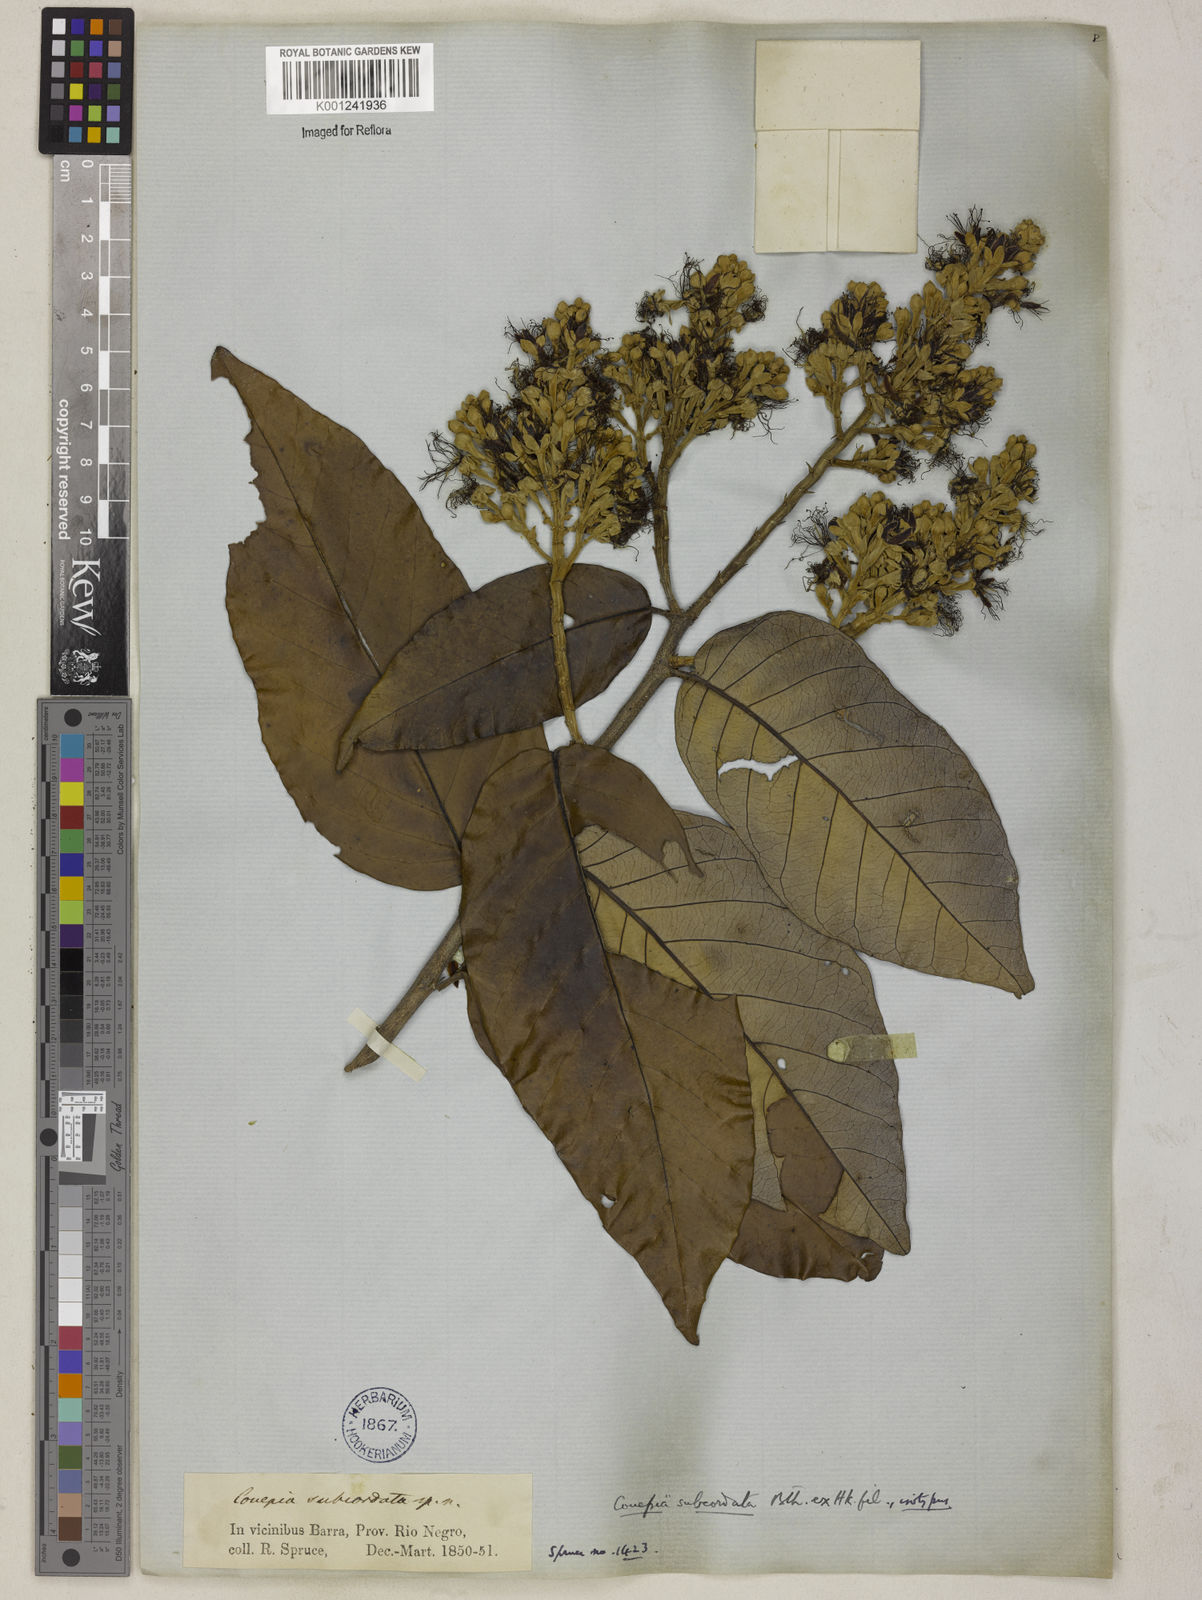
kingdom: Plantae
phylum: Tracheophyta
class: Magnoliopsida
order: Malpighiales
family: Chrysobalanaceae
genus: Couepia
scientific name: Couepia subcordata
